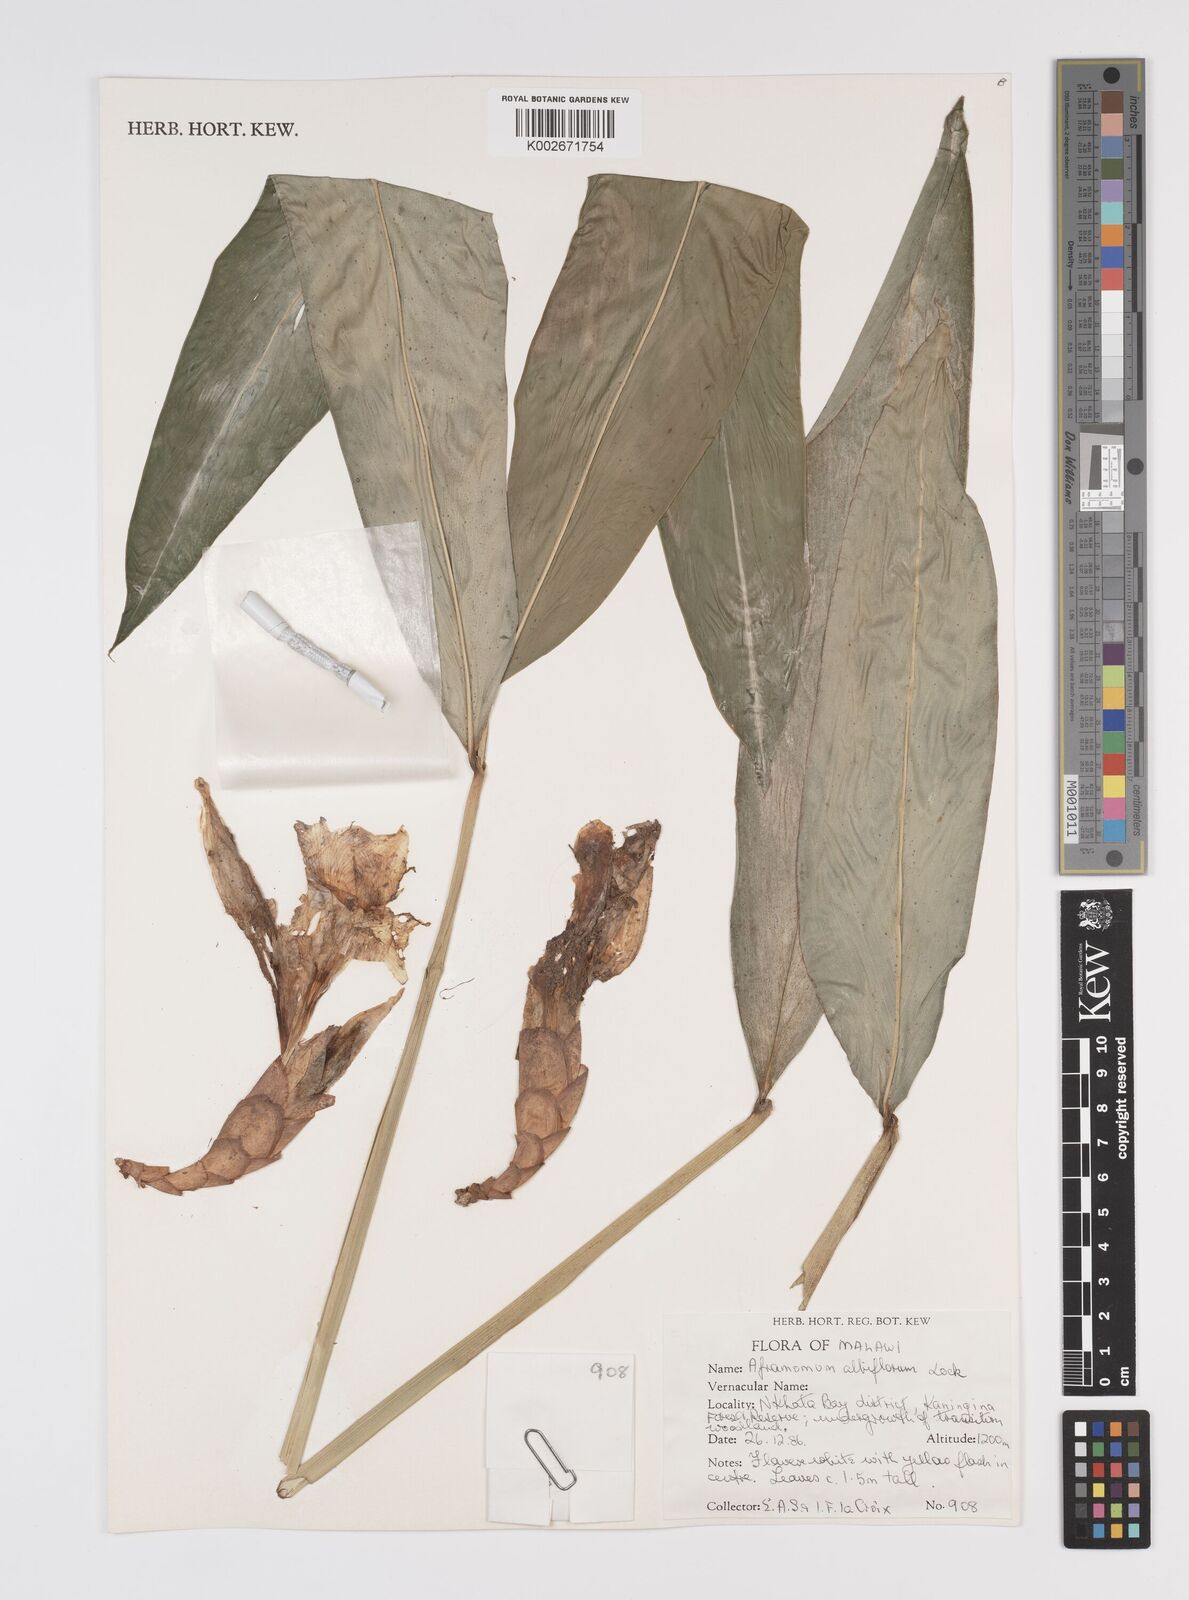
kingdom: Plantae
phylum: Tracheophyta
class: Liliopsida
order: Zingiberales
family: Zingiberaceae
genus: Aframomum
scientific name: Aframomum albiflorum
